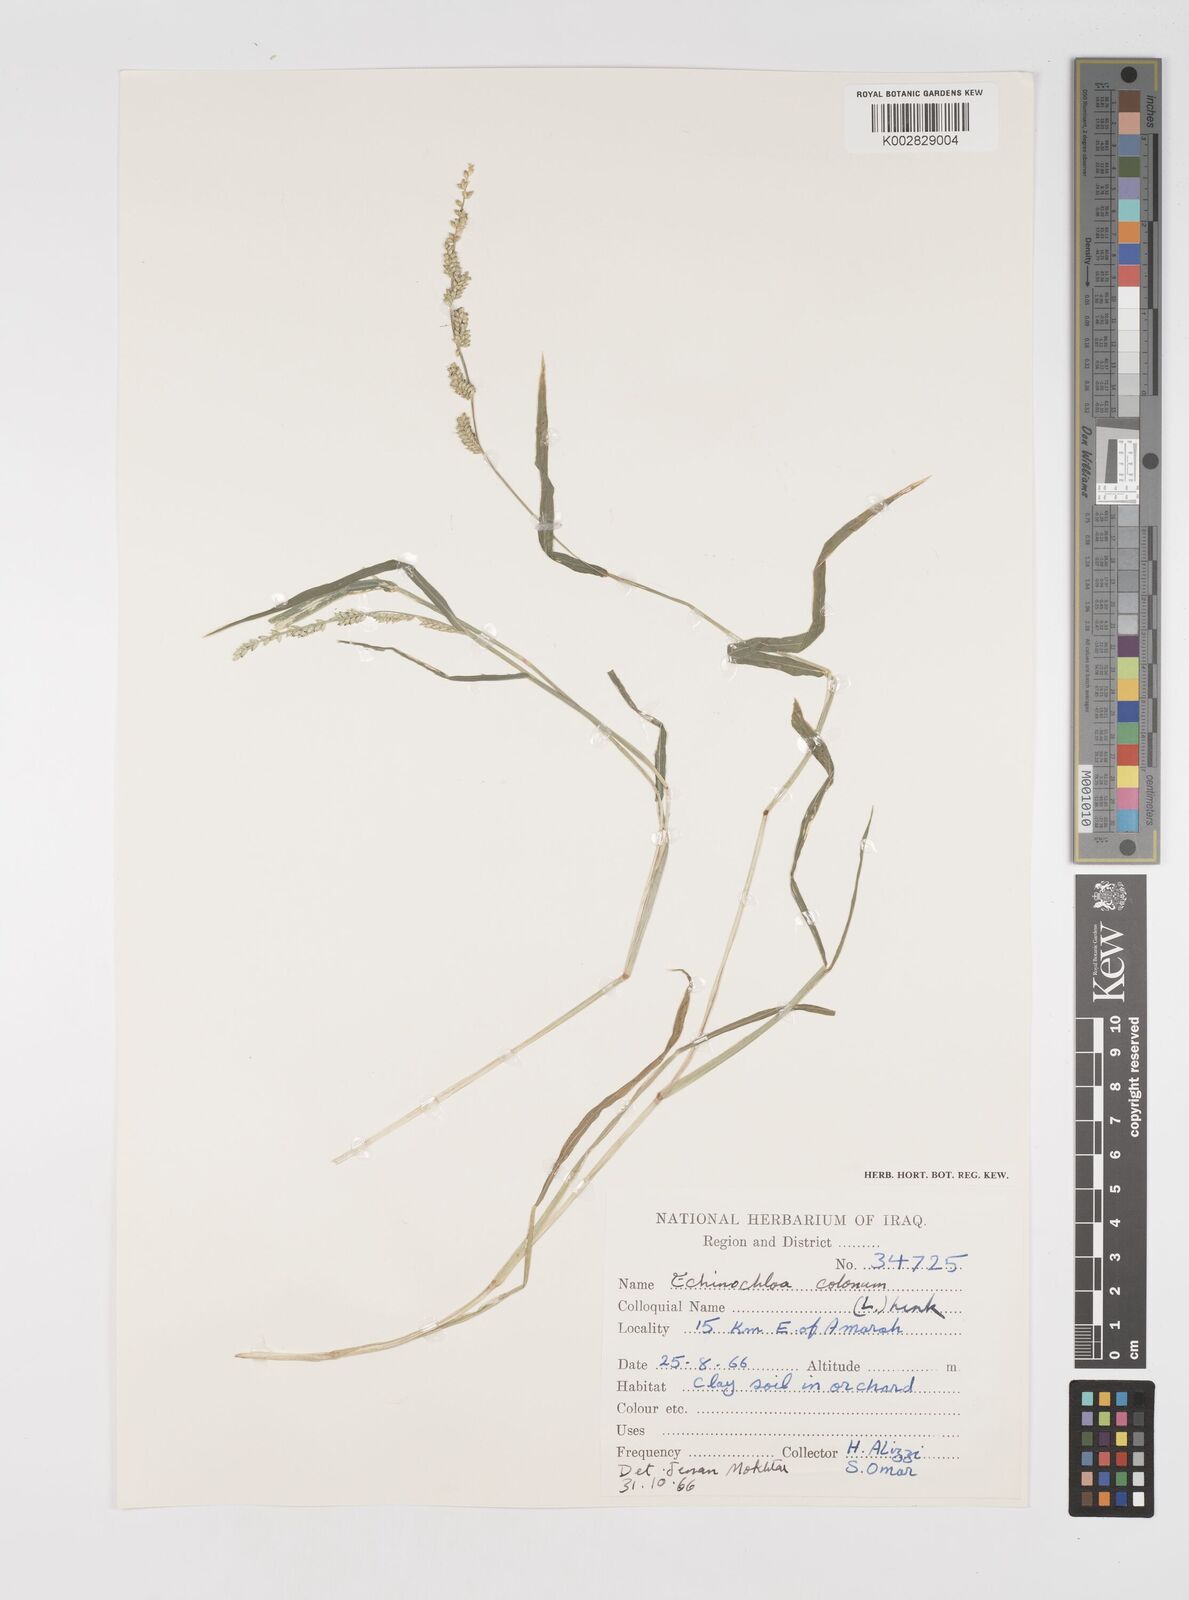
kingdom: Plantae
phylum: Tracheophyta
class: Liliopsida
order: Poales
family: Poaceae
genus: Echinochloa
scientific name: Echinochloa colonum
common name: Jungle rice
